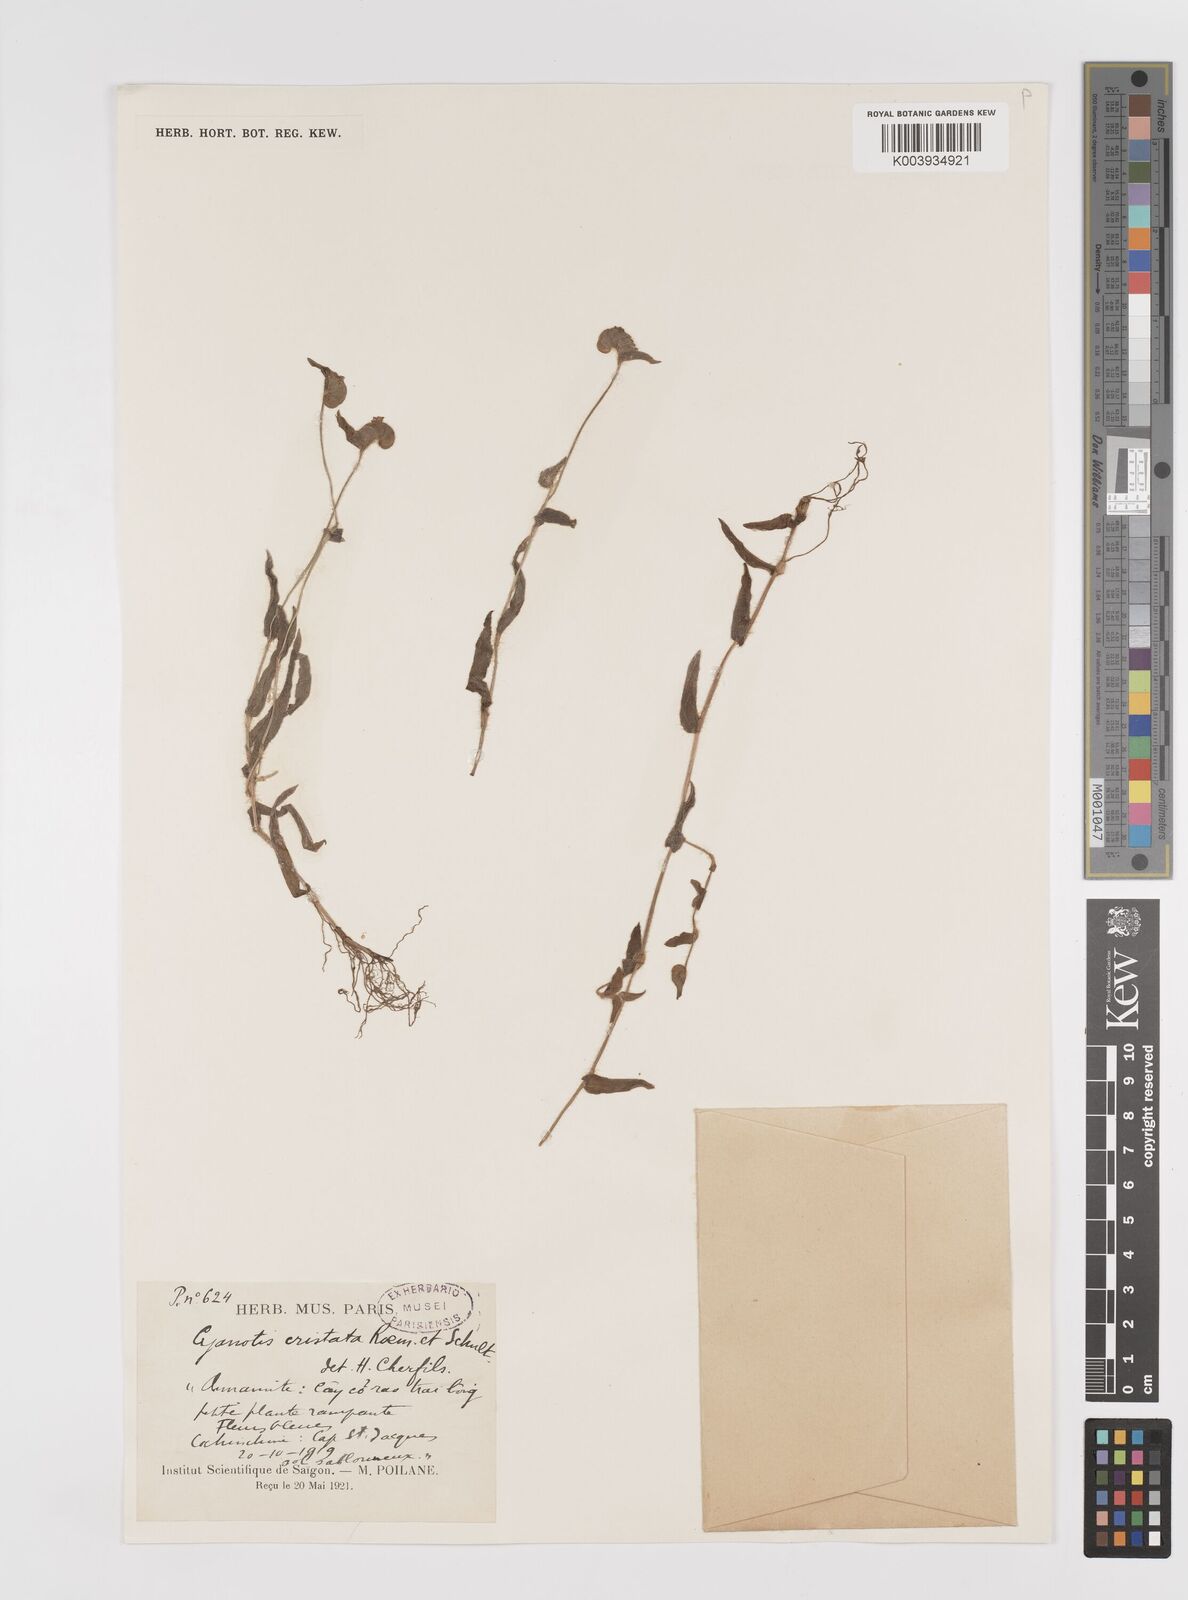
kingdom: Plantae
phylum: Tracheophyta
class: Liliopsida
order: Commelinales
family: Commelinaceae
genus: Cyanotis
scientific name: Cyanotis cristata
